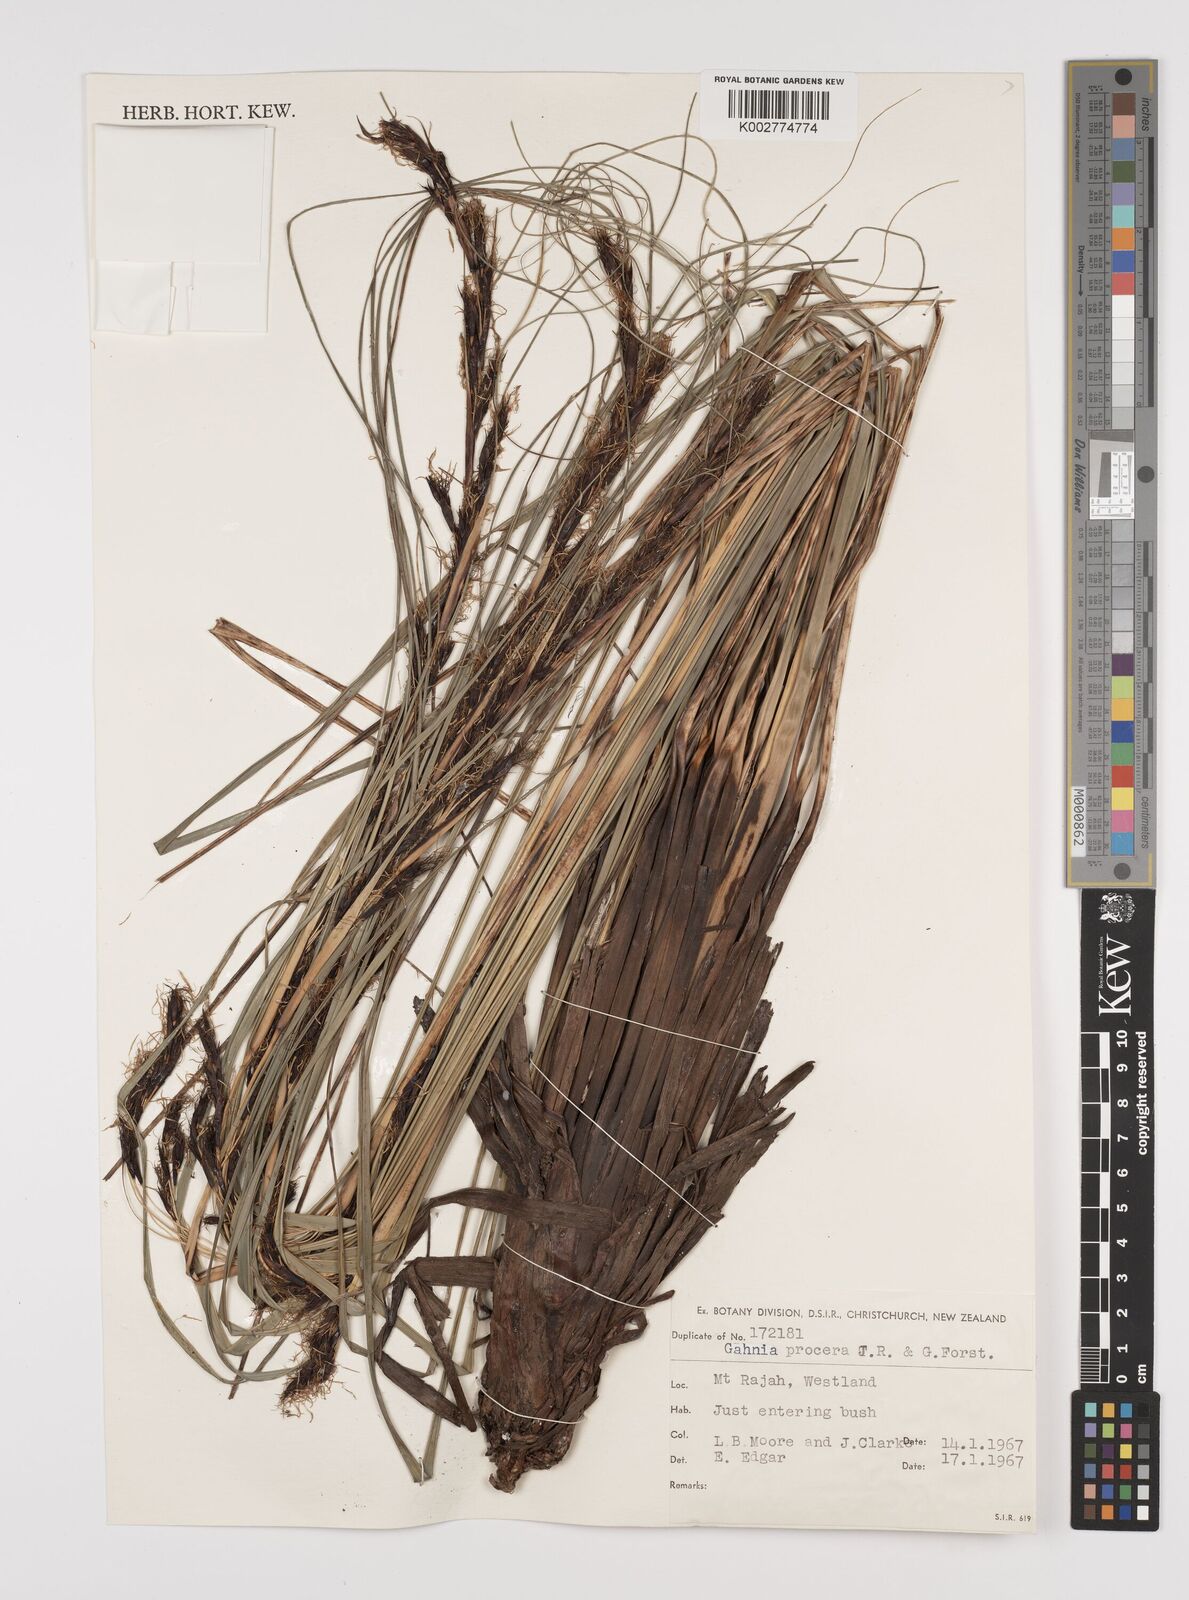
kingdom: Plantae
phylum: Tracheophyta
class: Liliopsida
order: Poales
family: Cyperaceae
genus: Gahnia
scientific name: Gahnia procera
